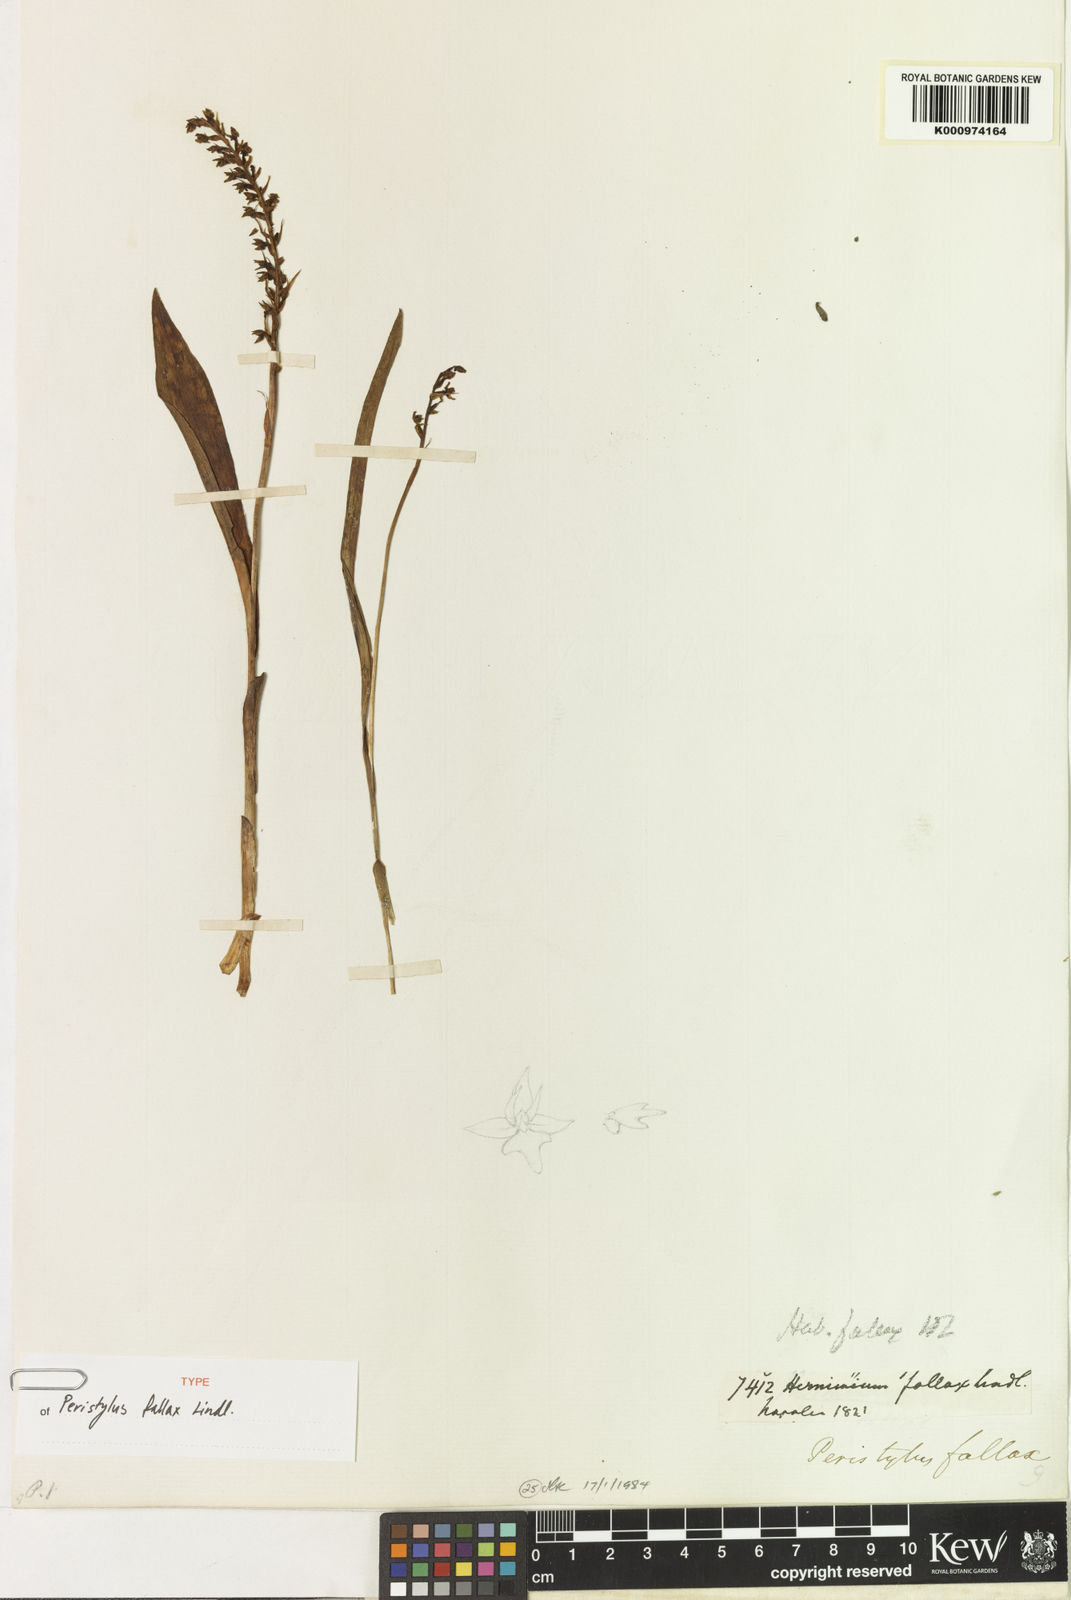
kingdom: Plantae
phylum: Tracheophyta
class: Liliopsida
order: Asparagales
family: Orchidaceae
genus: Herminium
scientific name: Herminium fallax
